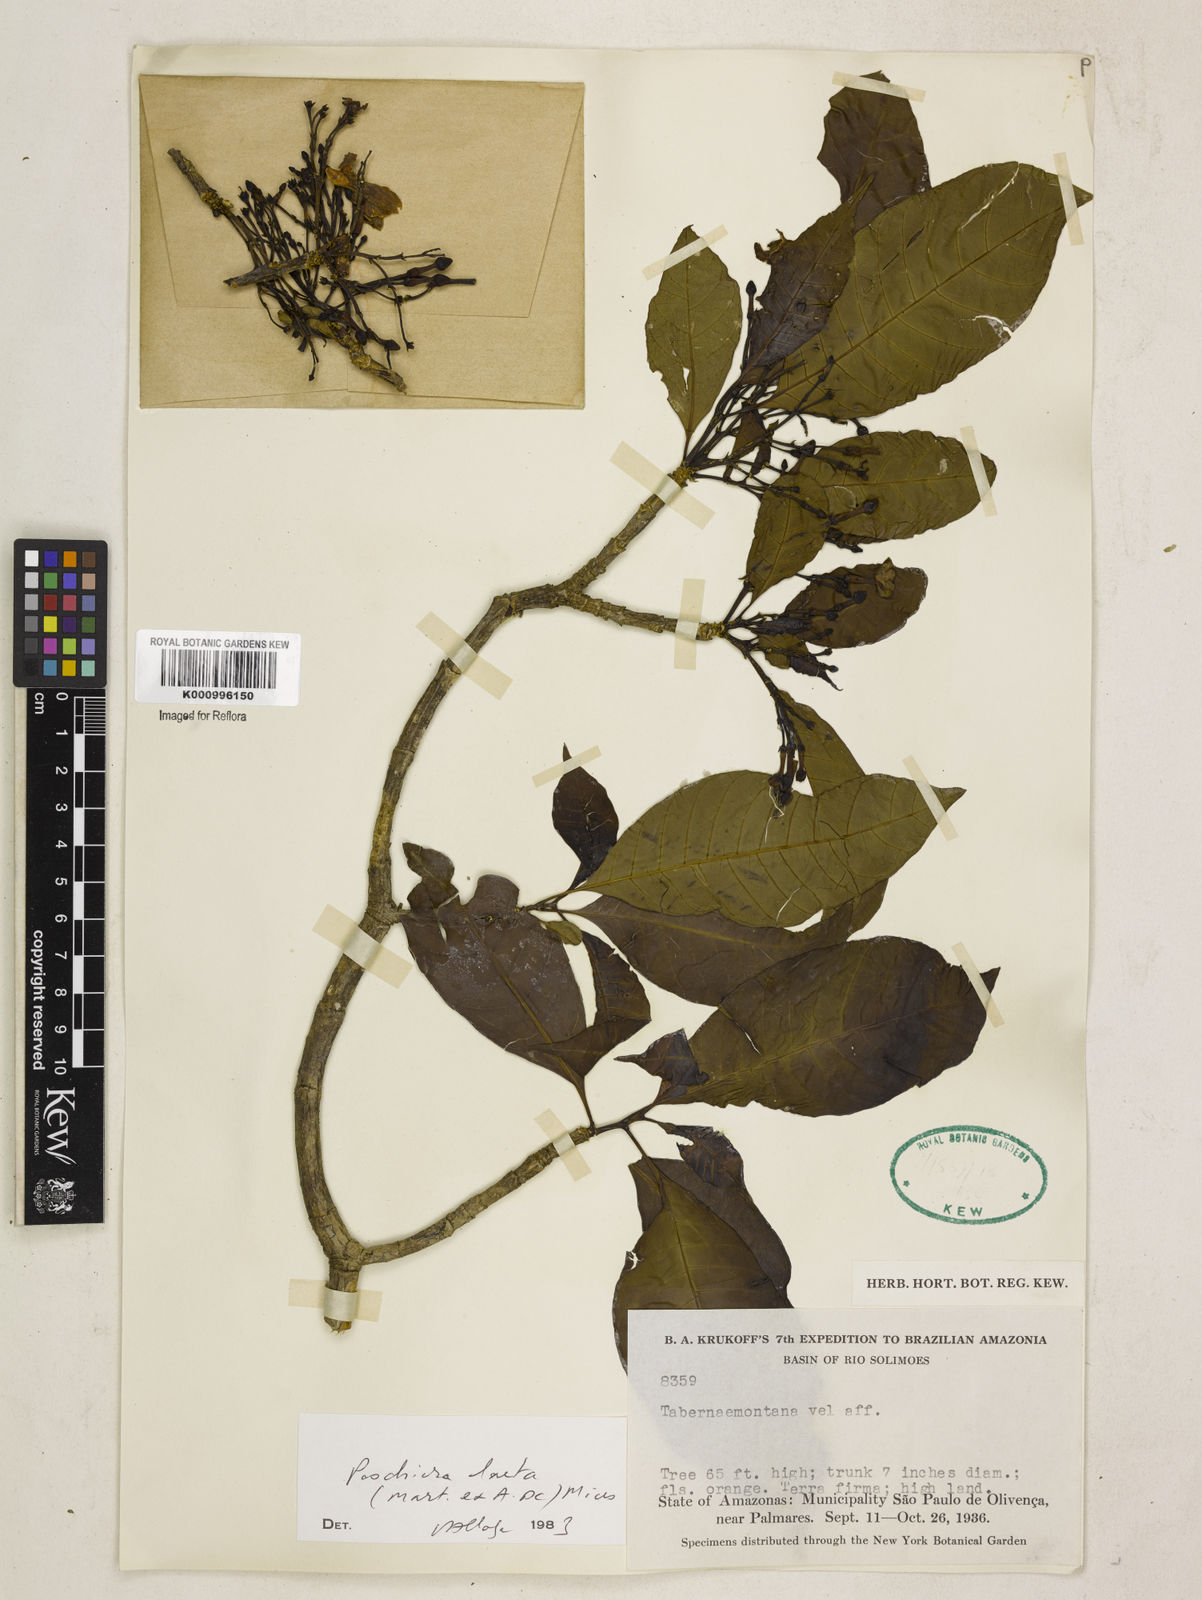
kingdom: Plantae
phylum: Tracheophyta
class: Magnoliopsida
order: Gentianales
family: Apocynaceae
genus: Tabernaemontana
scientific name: Tabernaemontana laeta
